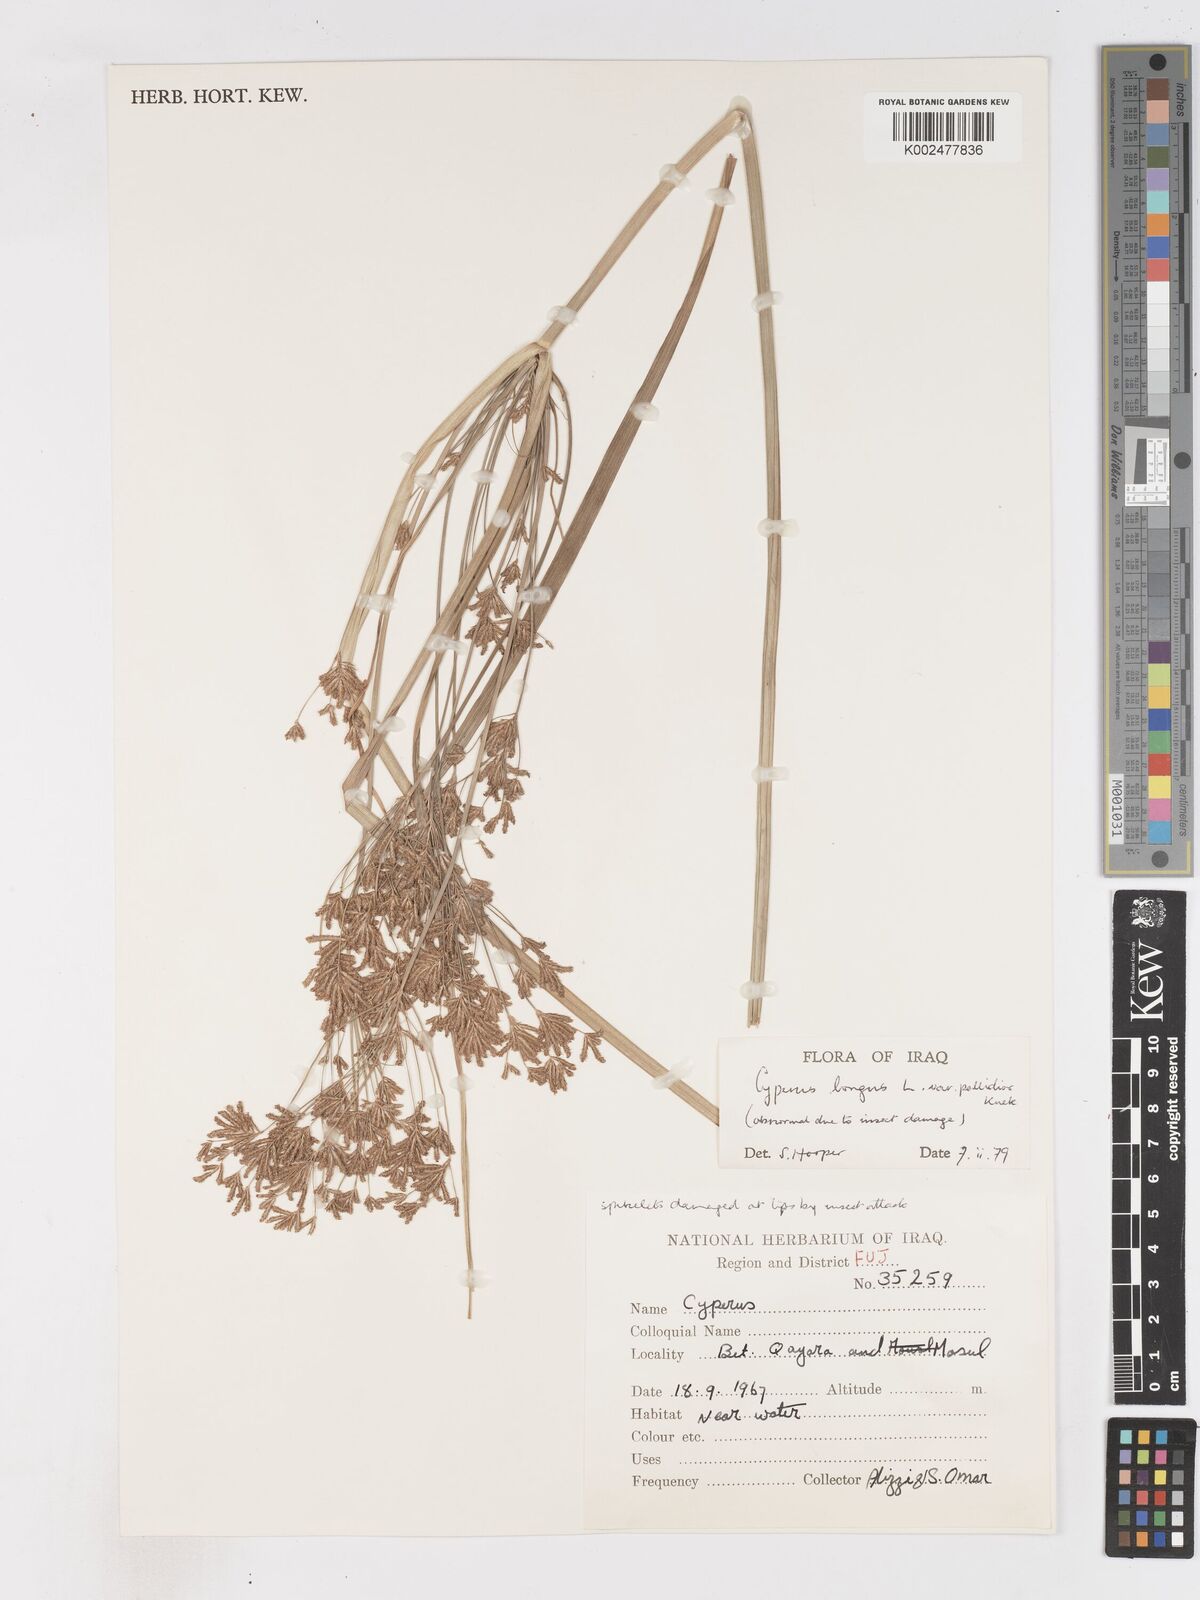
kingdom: Plantae
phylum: Tracheophyta
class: Liliopsida
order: Poales
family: Cyperaceae
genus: Cyperus
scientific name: Cyperus longus
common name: Galingale
